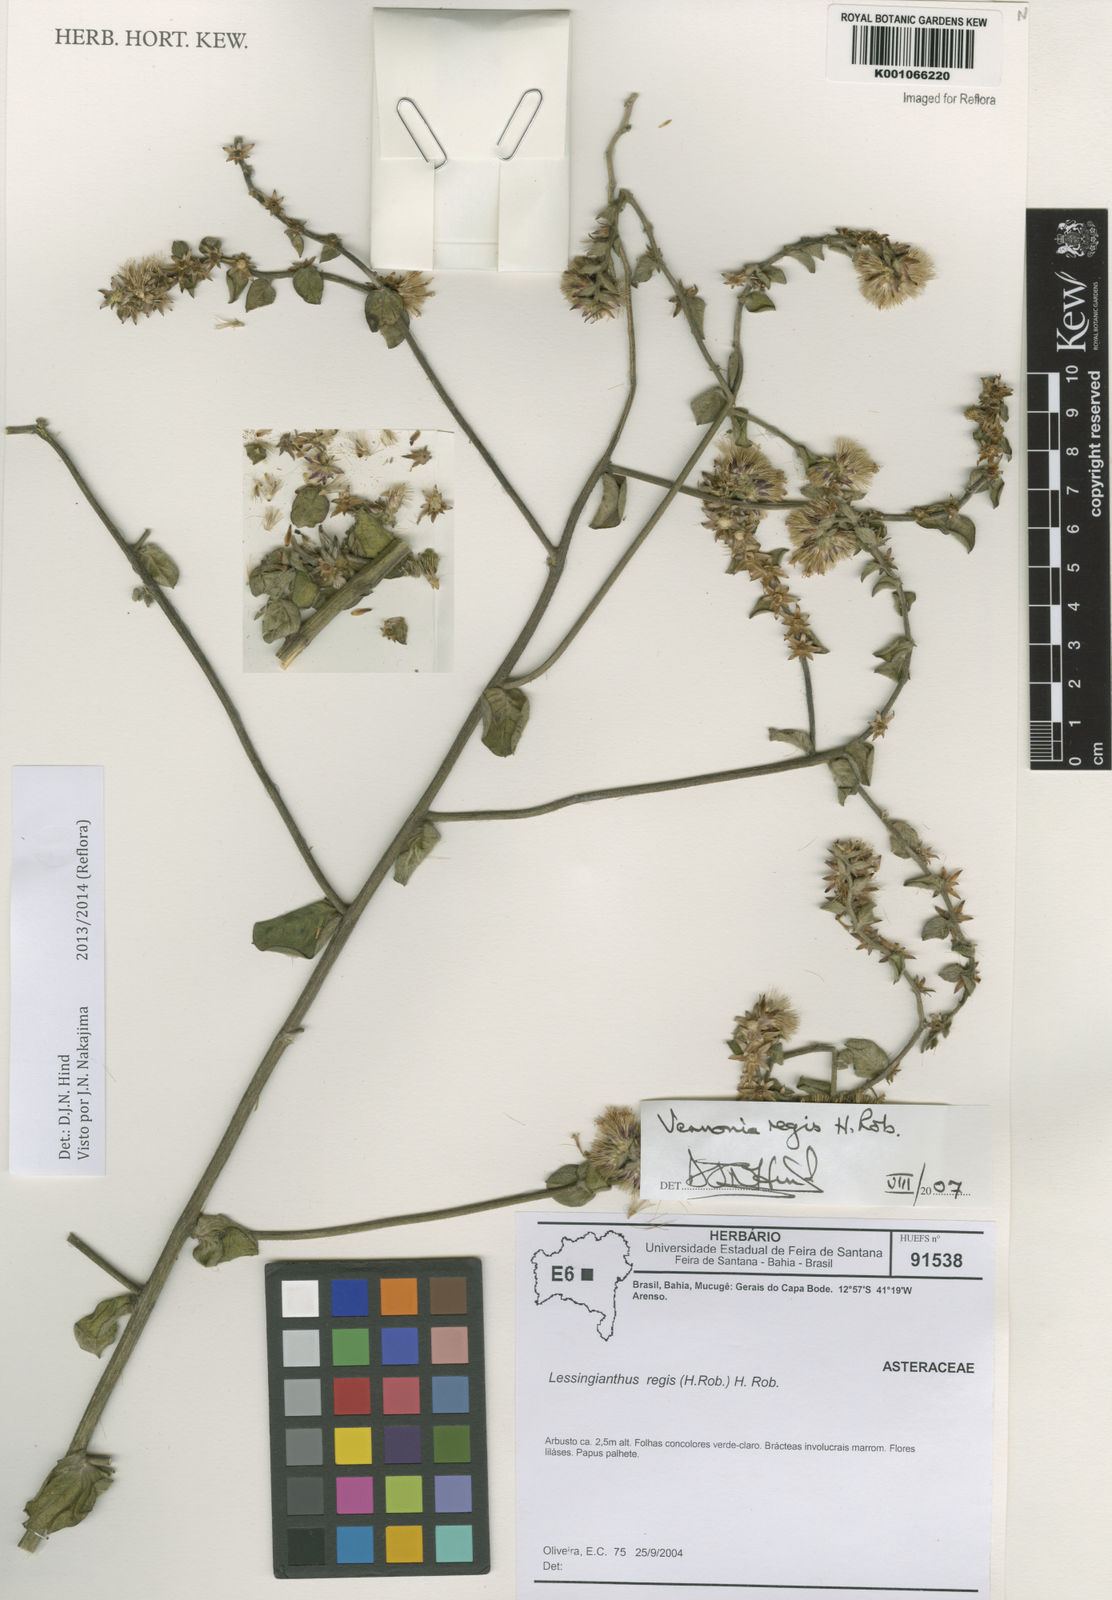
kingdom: Plantae
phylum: Tracheophyta
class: Magnoliopsida
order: Asterales
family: Asteraceae
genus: Lessingianthus
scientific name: Lessingianthus regis
